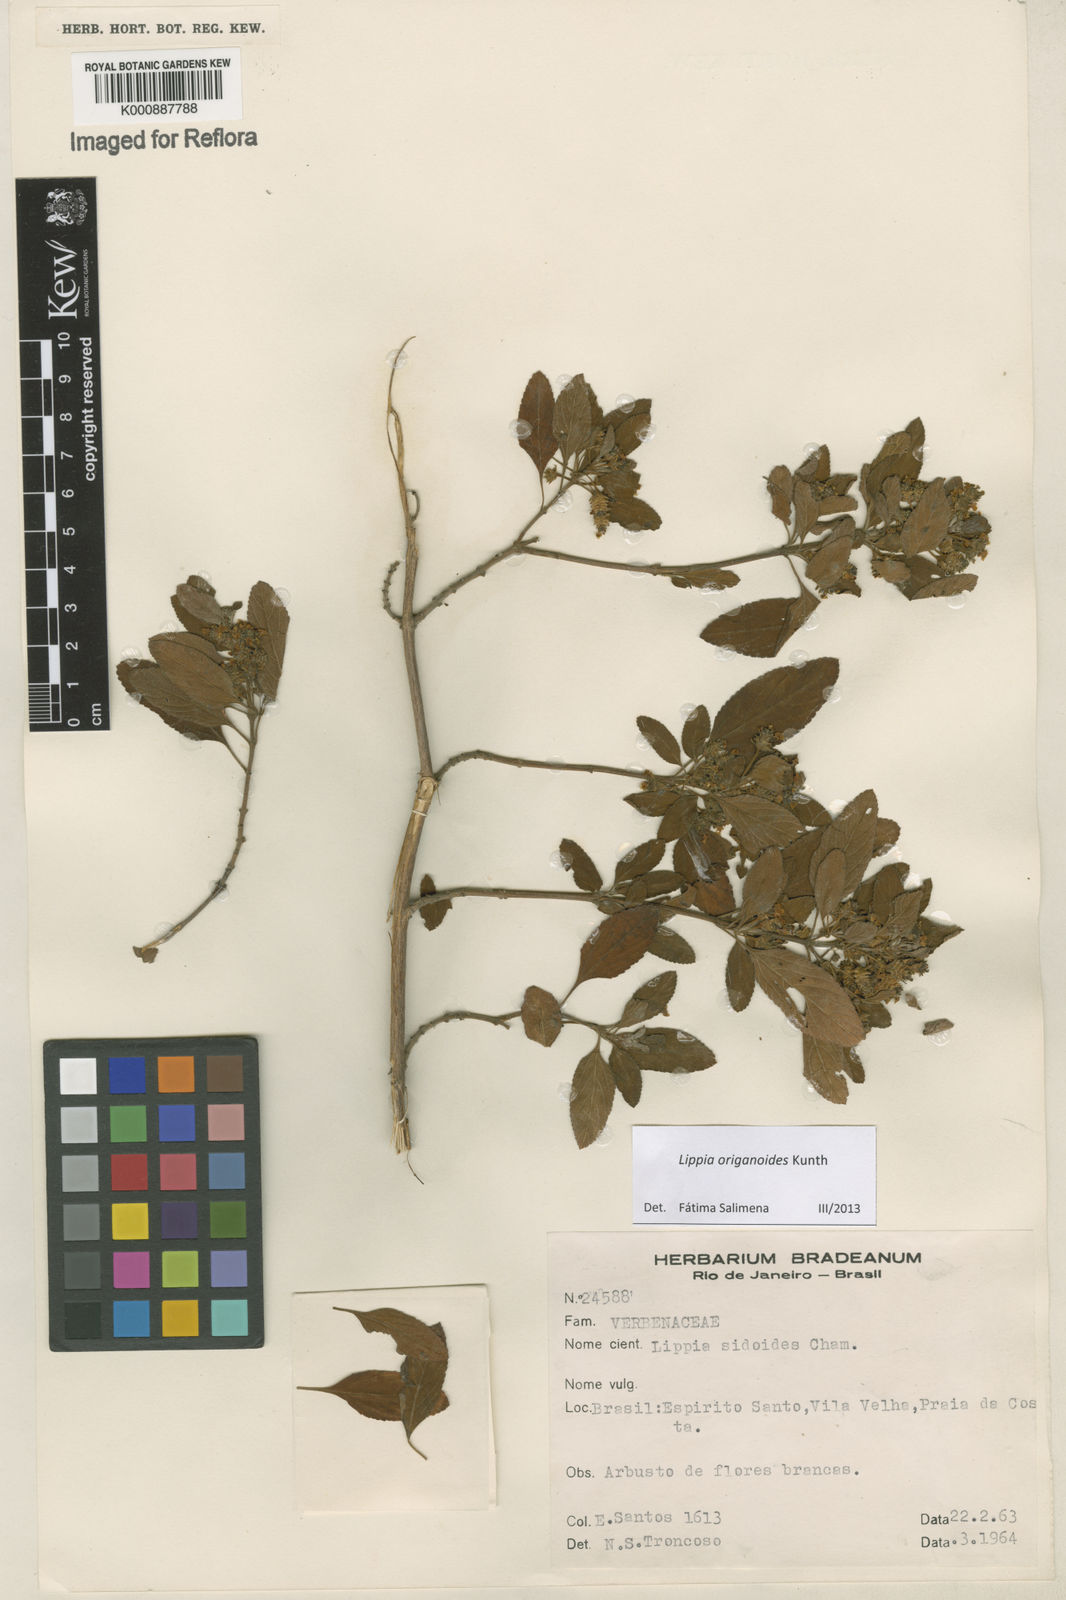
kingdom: Plantae
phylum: Tracheophyta
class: Magnoliopsida
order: Lamiales
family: Verbenaceae
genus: Lippia
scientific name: Lippia origanoides
